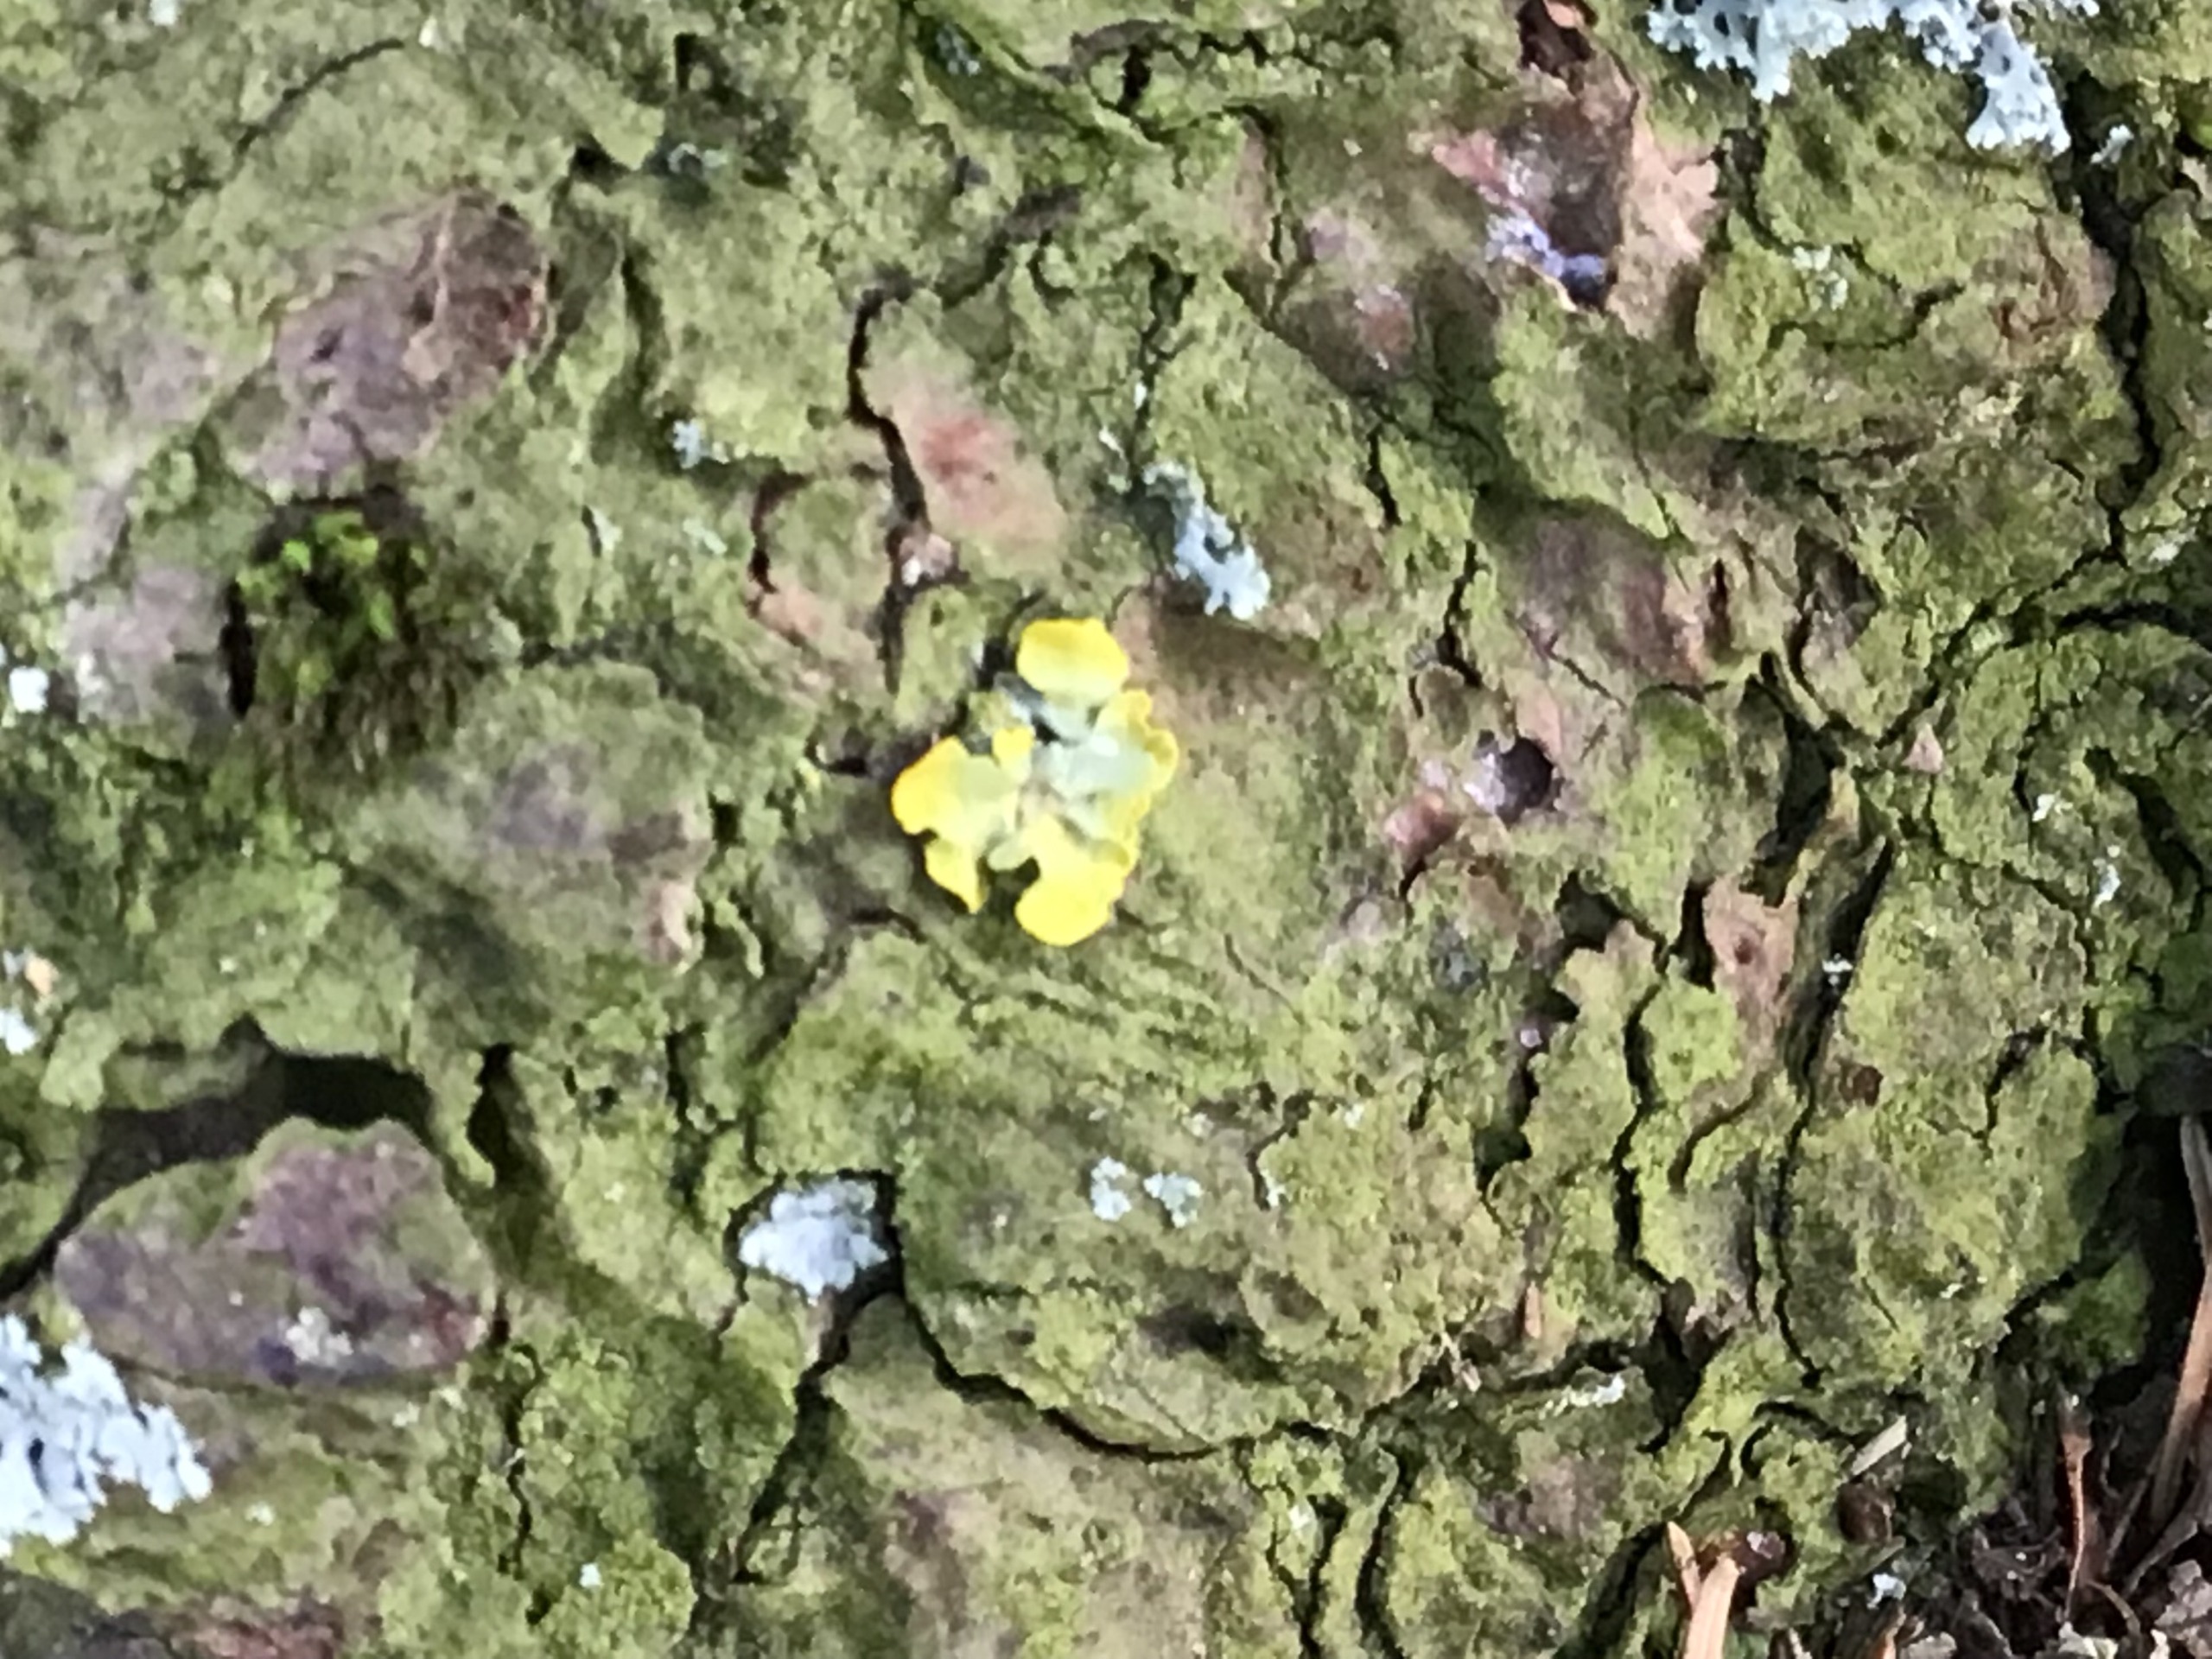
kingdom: Fungi
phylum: Ascomycota
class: Lecanoromycetes
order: Teloschistales
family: Teloschistaceae
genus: Xanthoria
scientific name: Xanthoria parietina
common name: Almindelig væggelav
